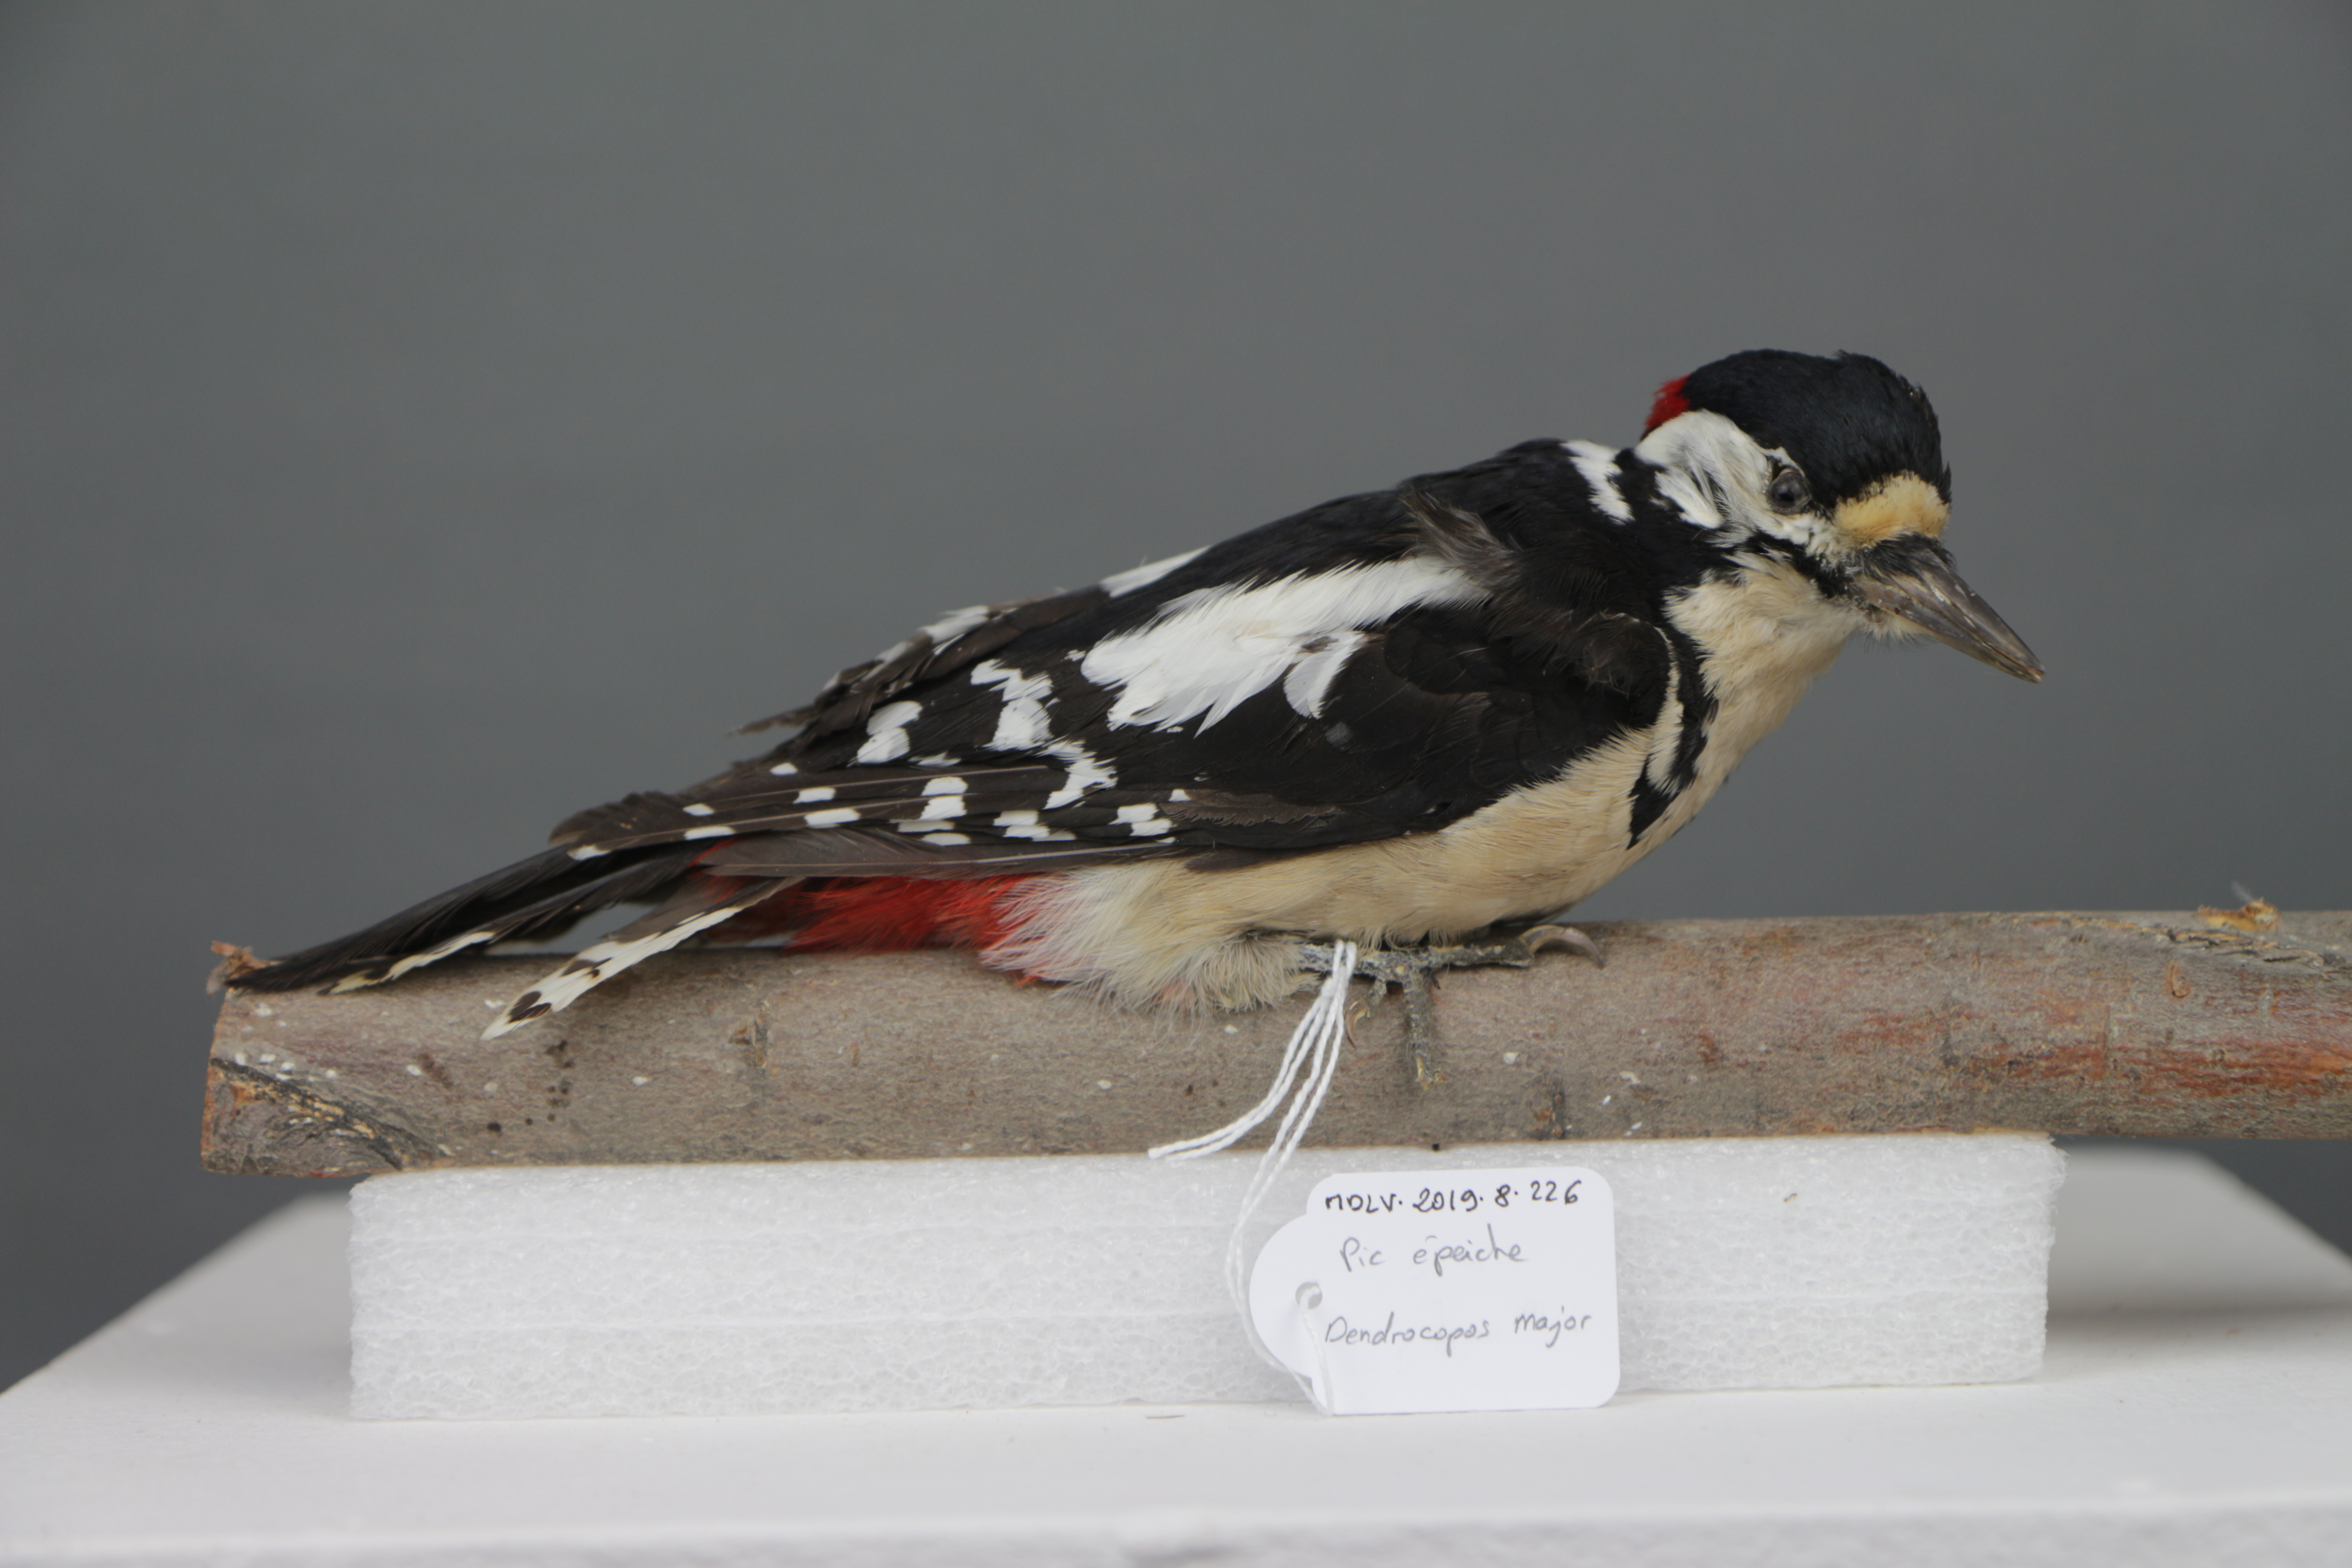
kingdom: Animalia
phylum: Chordata
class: Aves
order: Piciformes
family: Picidae
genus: Dendrocopos
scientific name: Dendrocopos major
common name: Great spotted woodpecker
